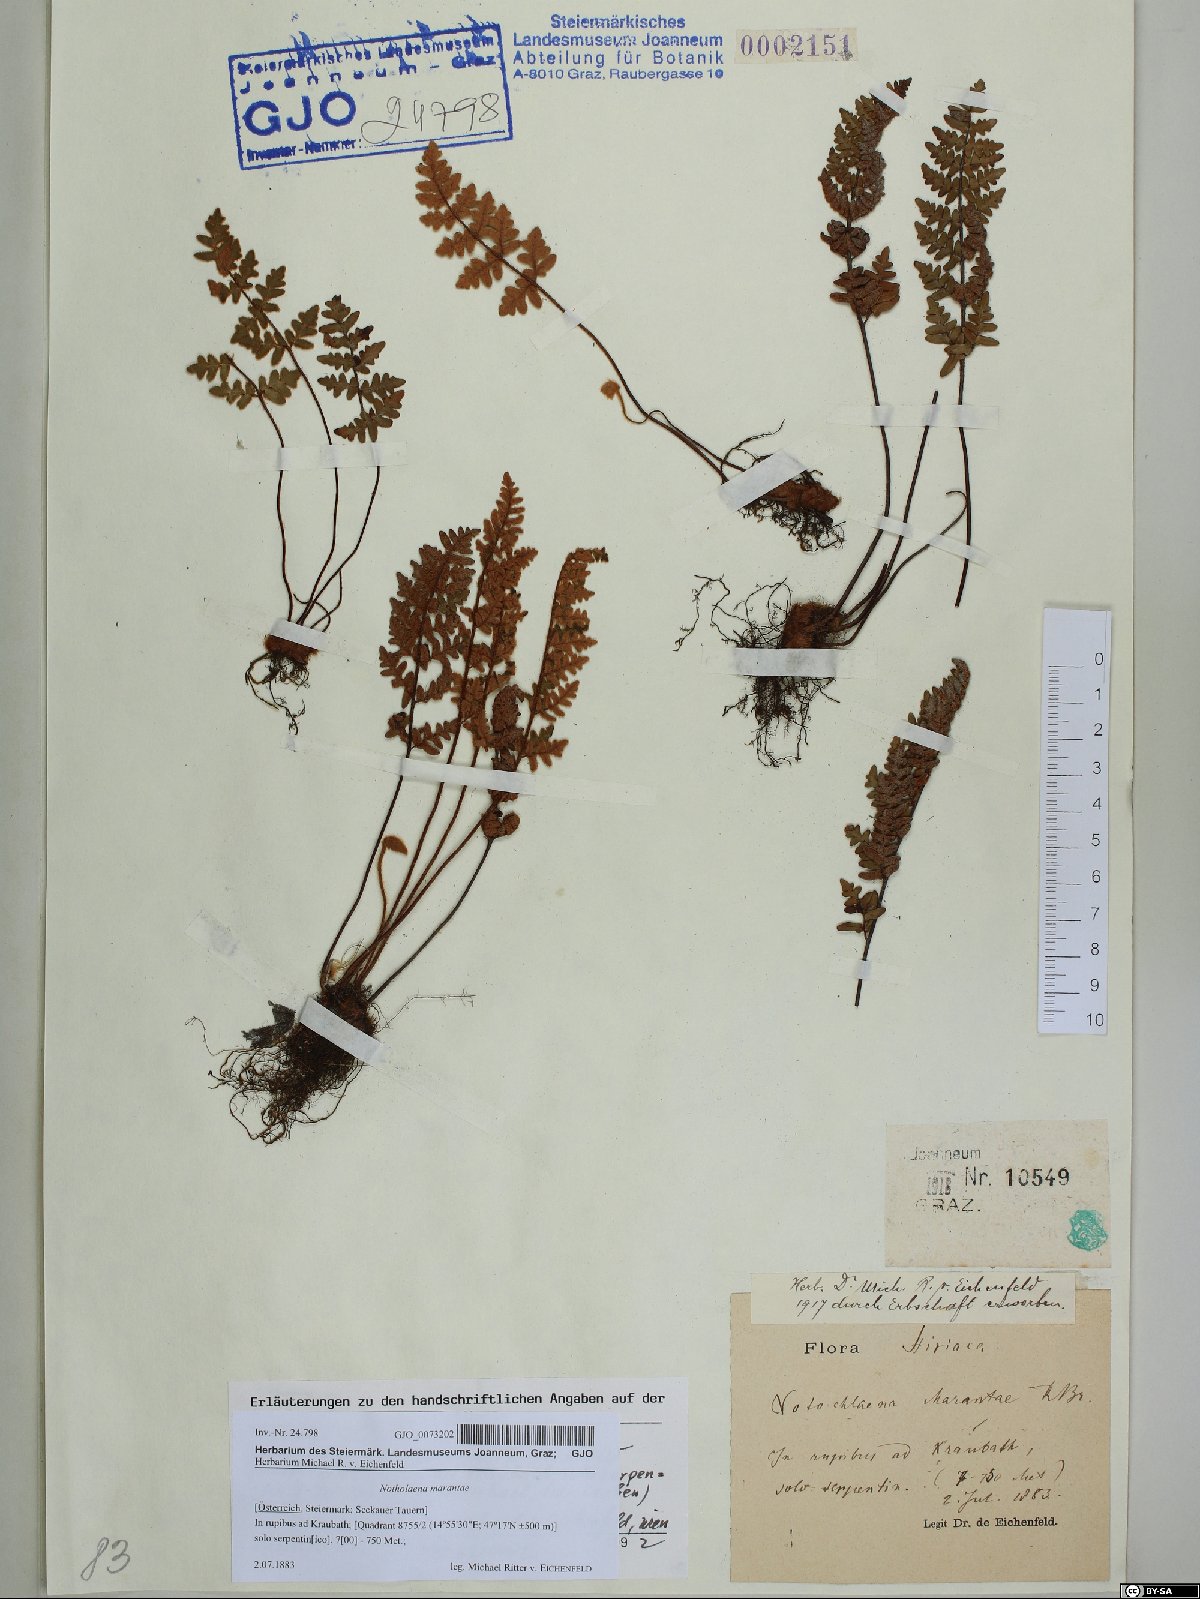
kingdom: Plantae
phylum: Tracheophyta
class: Polypodiopsida
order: Polypodiales
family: Pteridaceae
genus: Paragymnopteris
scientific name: Paragymnopteris marantae
